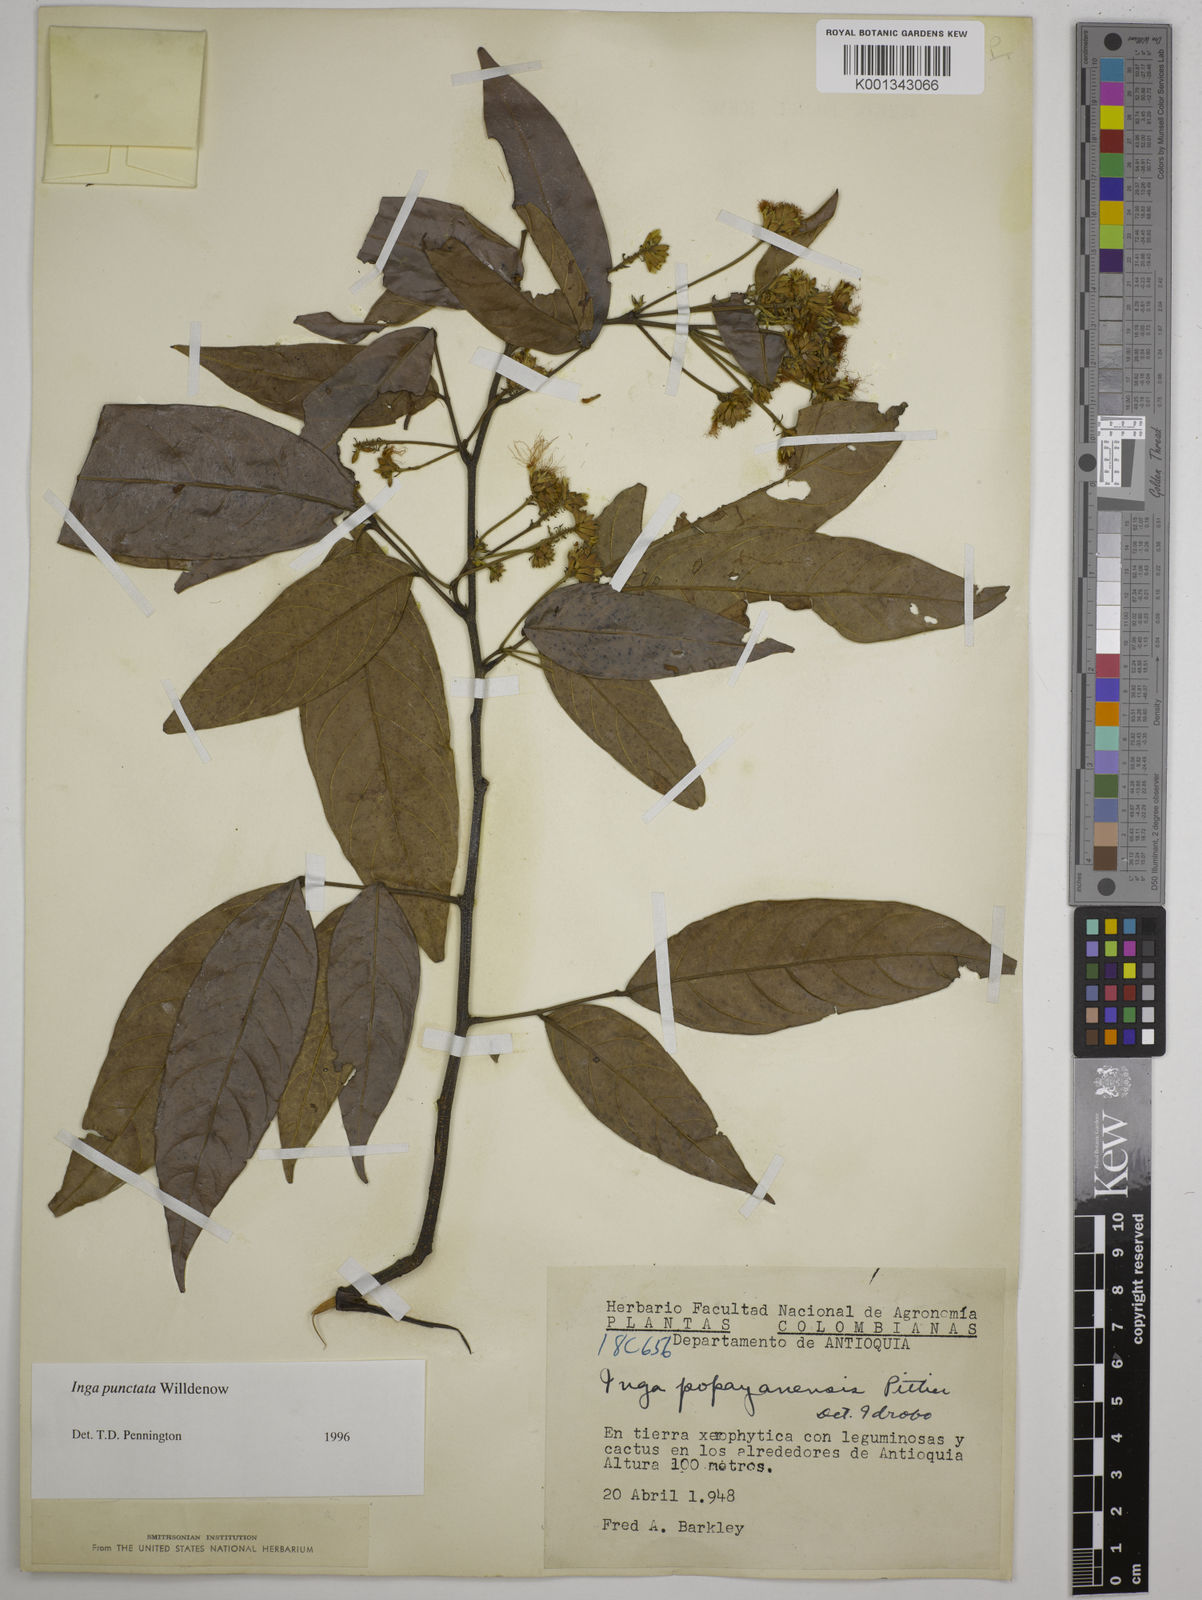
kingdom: Plantae
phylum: Tracheophyta
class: Magnoliopsida
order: Fabales
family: Fabaceae
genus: Inga
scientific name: Inga punctata
